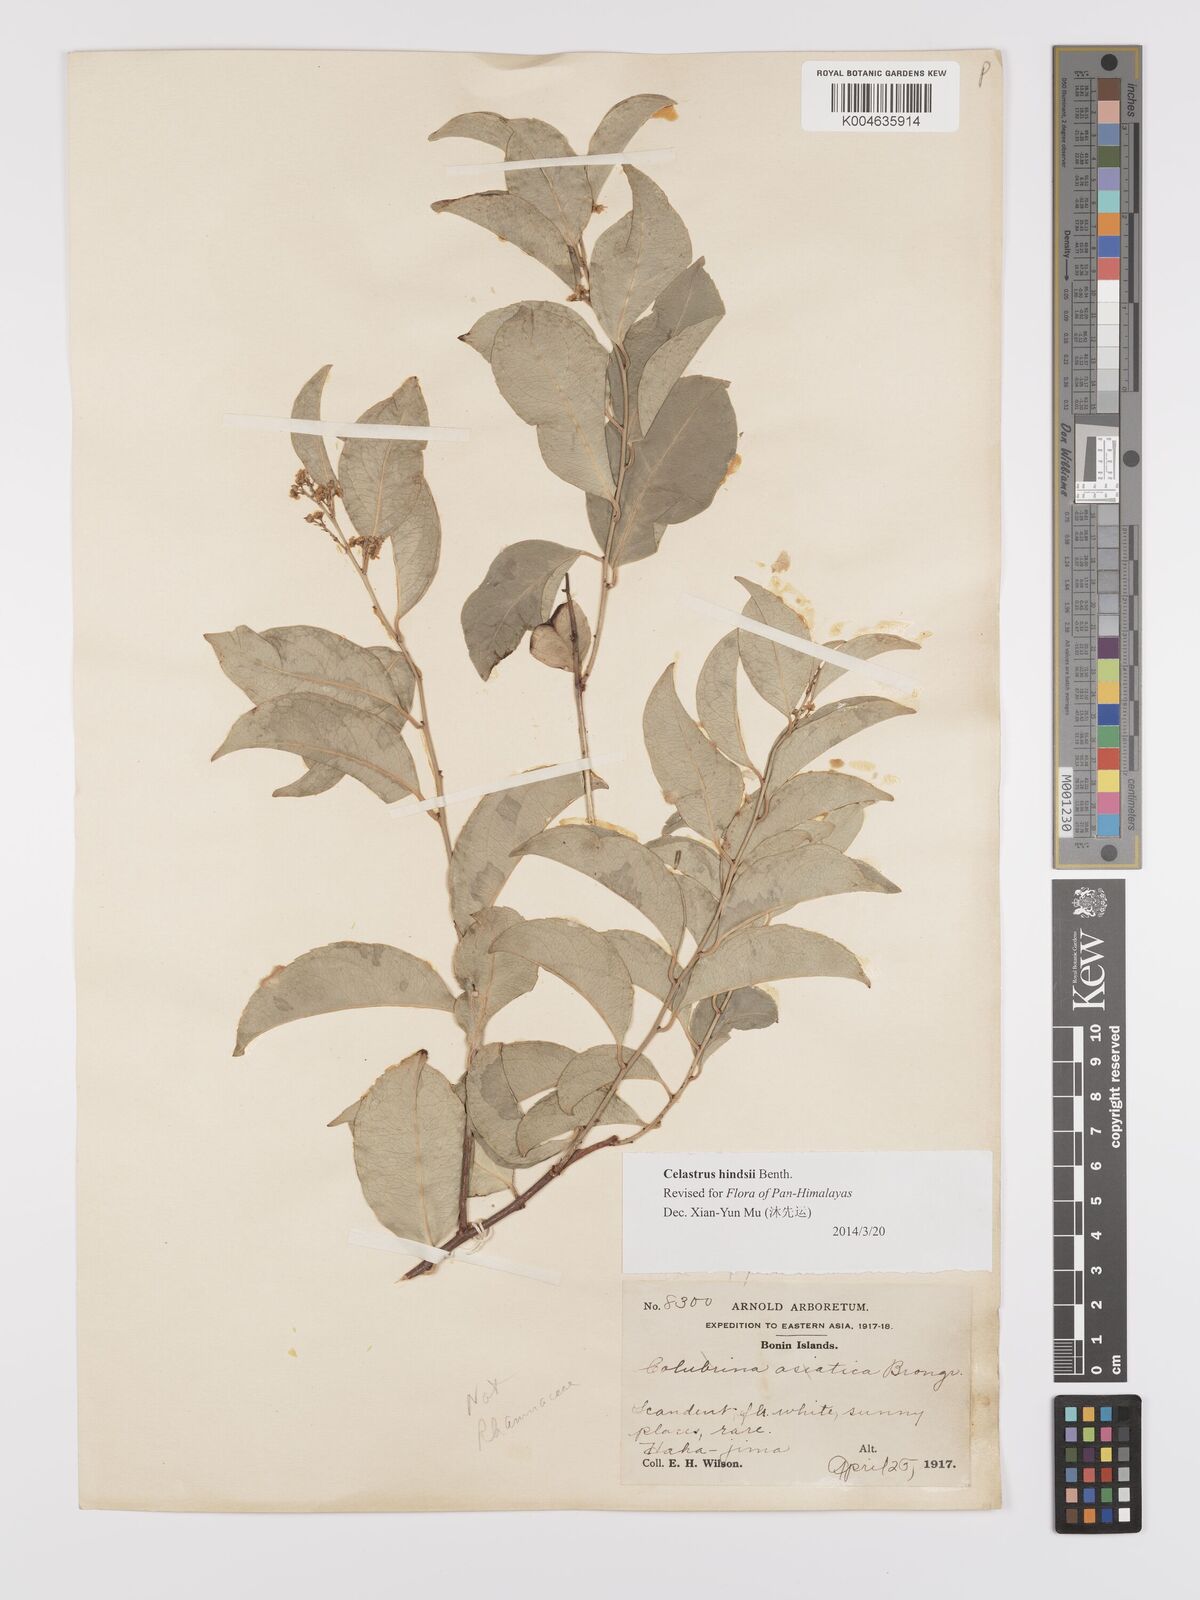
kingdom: Plantae
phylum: Tracheophyta
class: Magnoliopsida
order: Celastrales
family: Celastraceae
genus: Celastrus
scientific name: Celastrus hindsii
